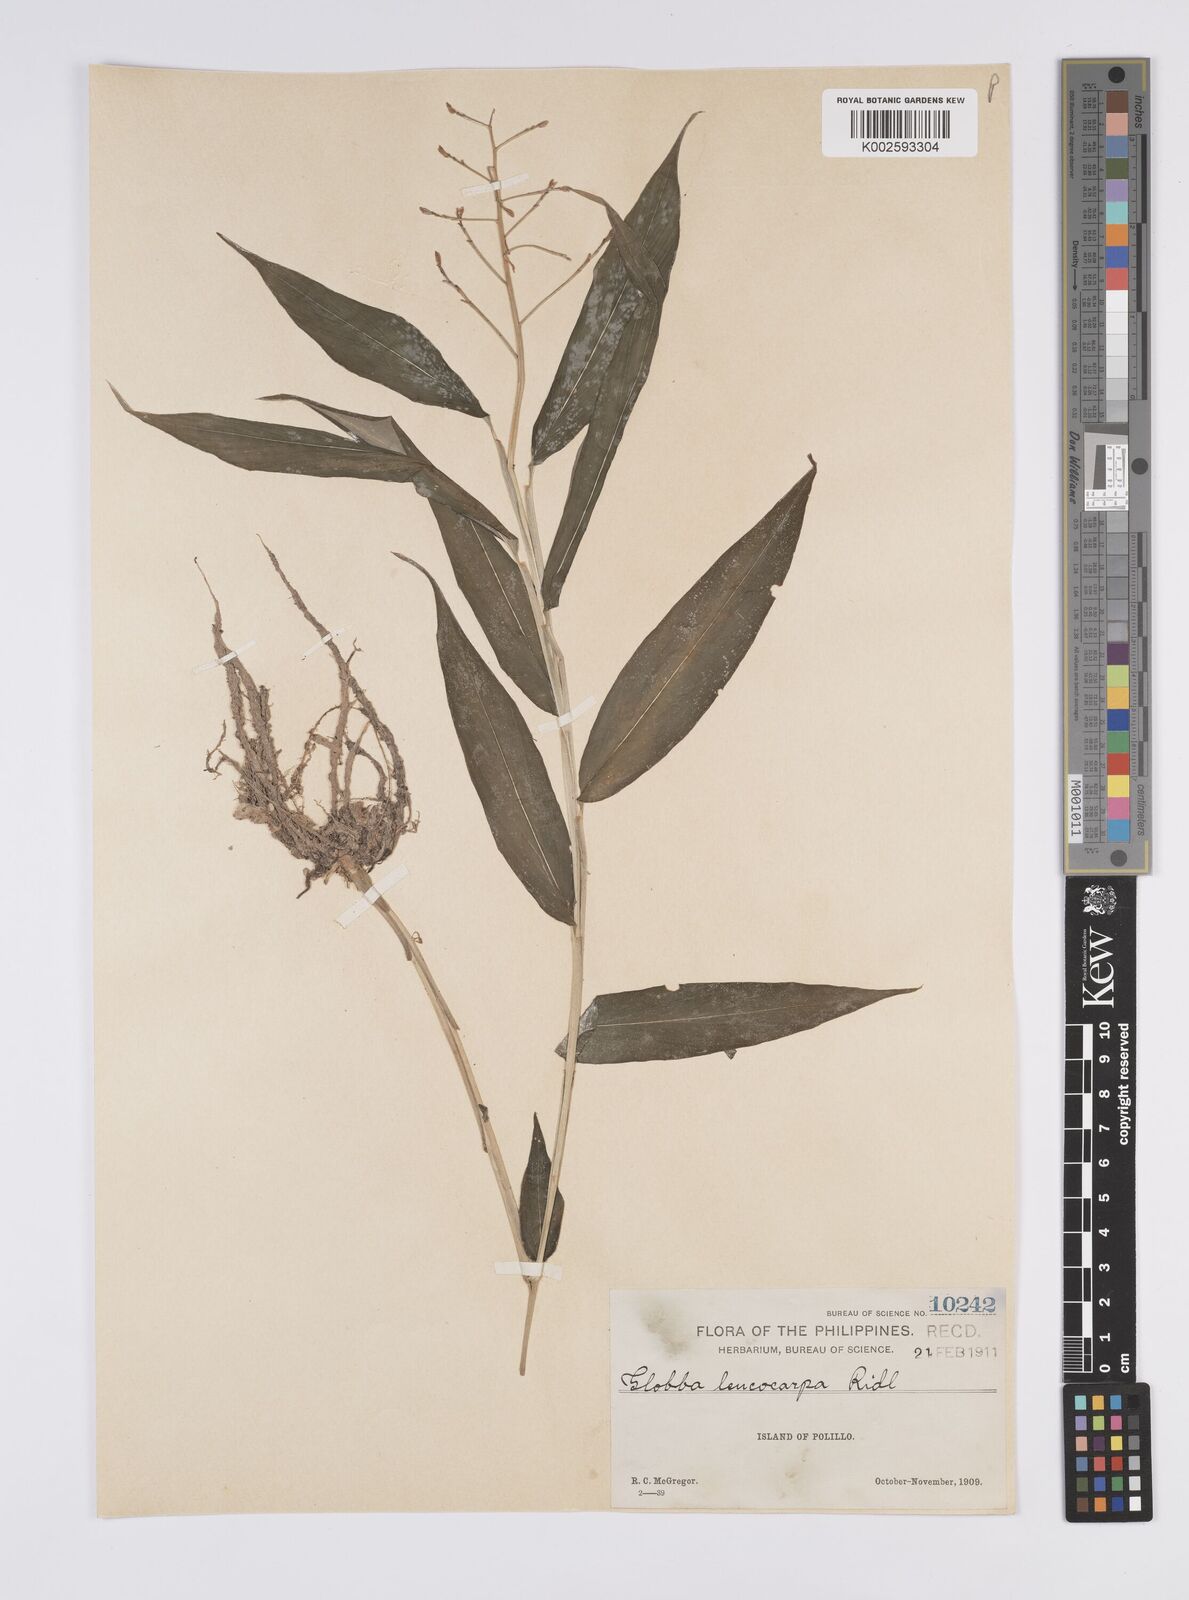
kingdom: Plantae
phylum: Tracheophyta
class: Liliopsida
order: Zingiberales
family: Zingiberaceae
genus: Globba
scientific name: Globba gracilis
